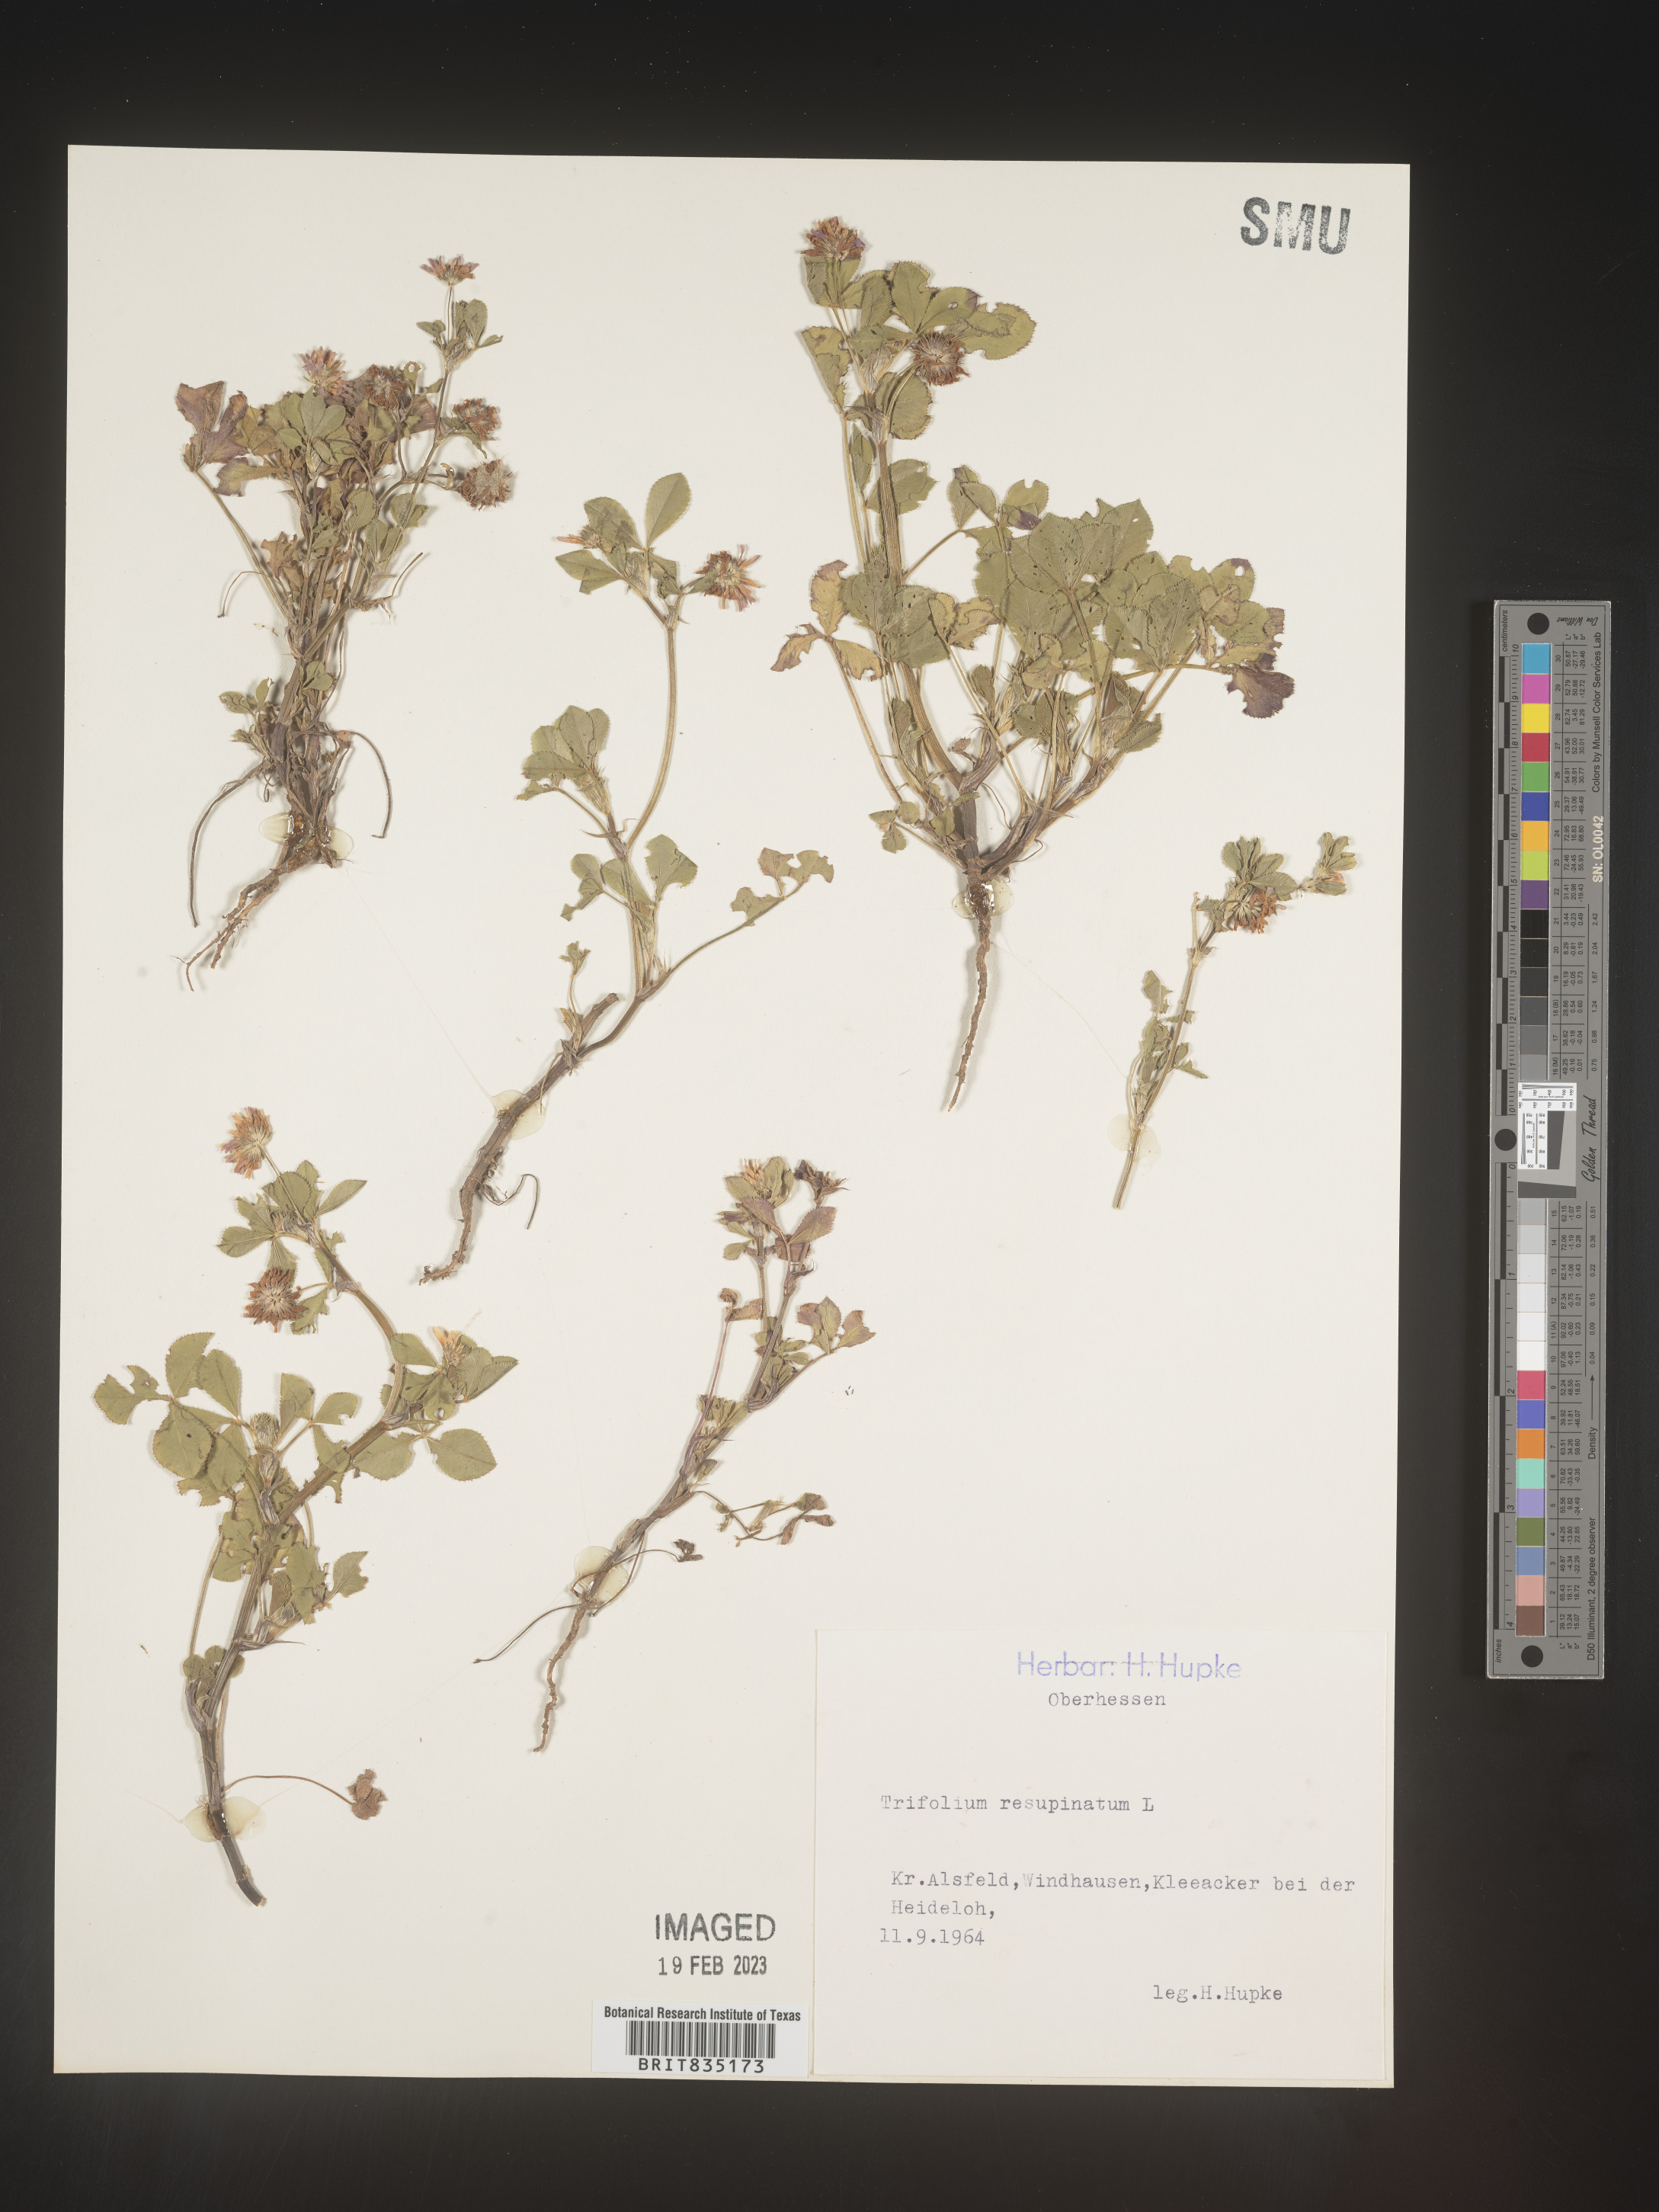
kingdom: Plantae
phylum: Tracheophyta
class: Magnoliopsida
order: Fabales
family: Fabaceae
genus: Trifolium
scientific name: Trifolium
